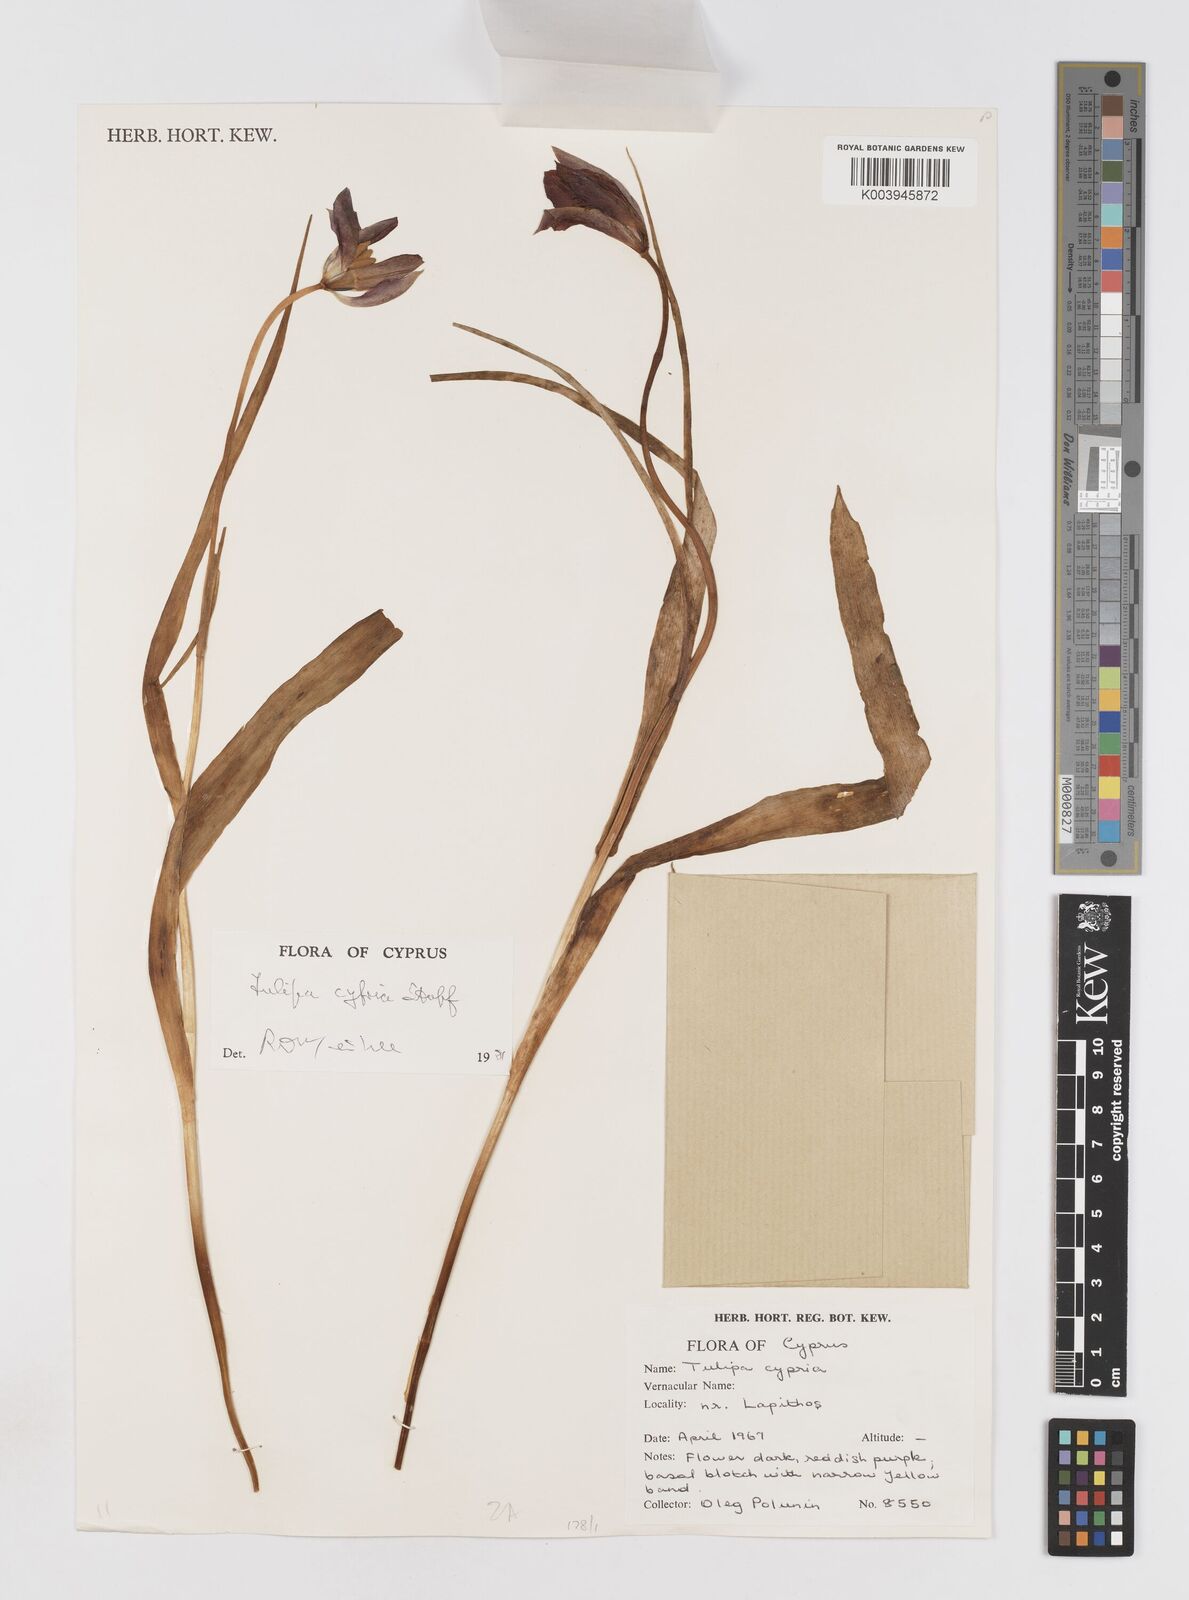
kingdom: Plantae
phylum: Tracheophyta
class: Liliopsida
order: Liliales
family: Liliaceae
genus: Tulipa
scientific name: Tulipa cypria
